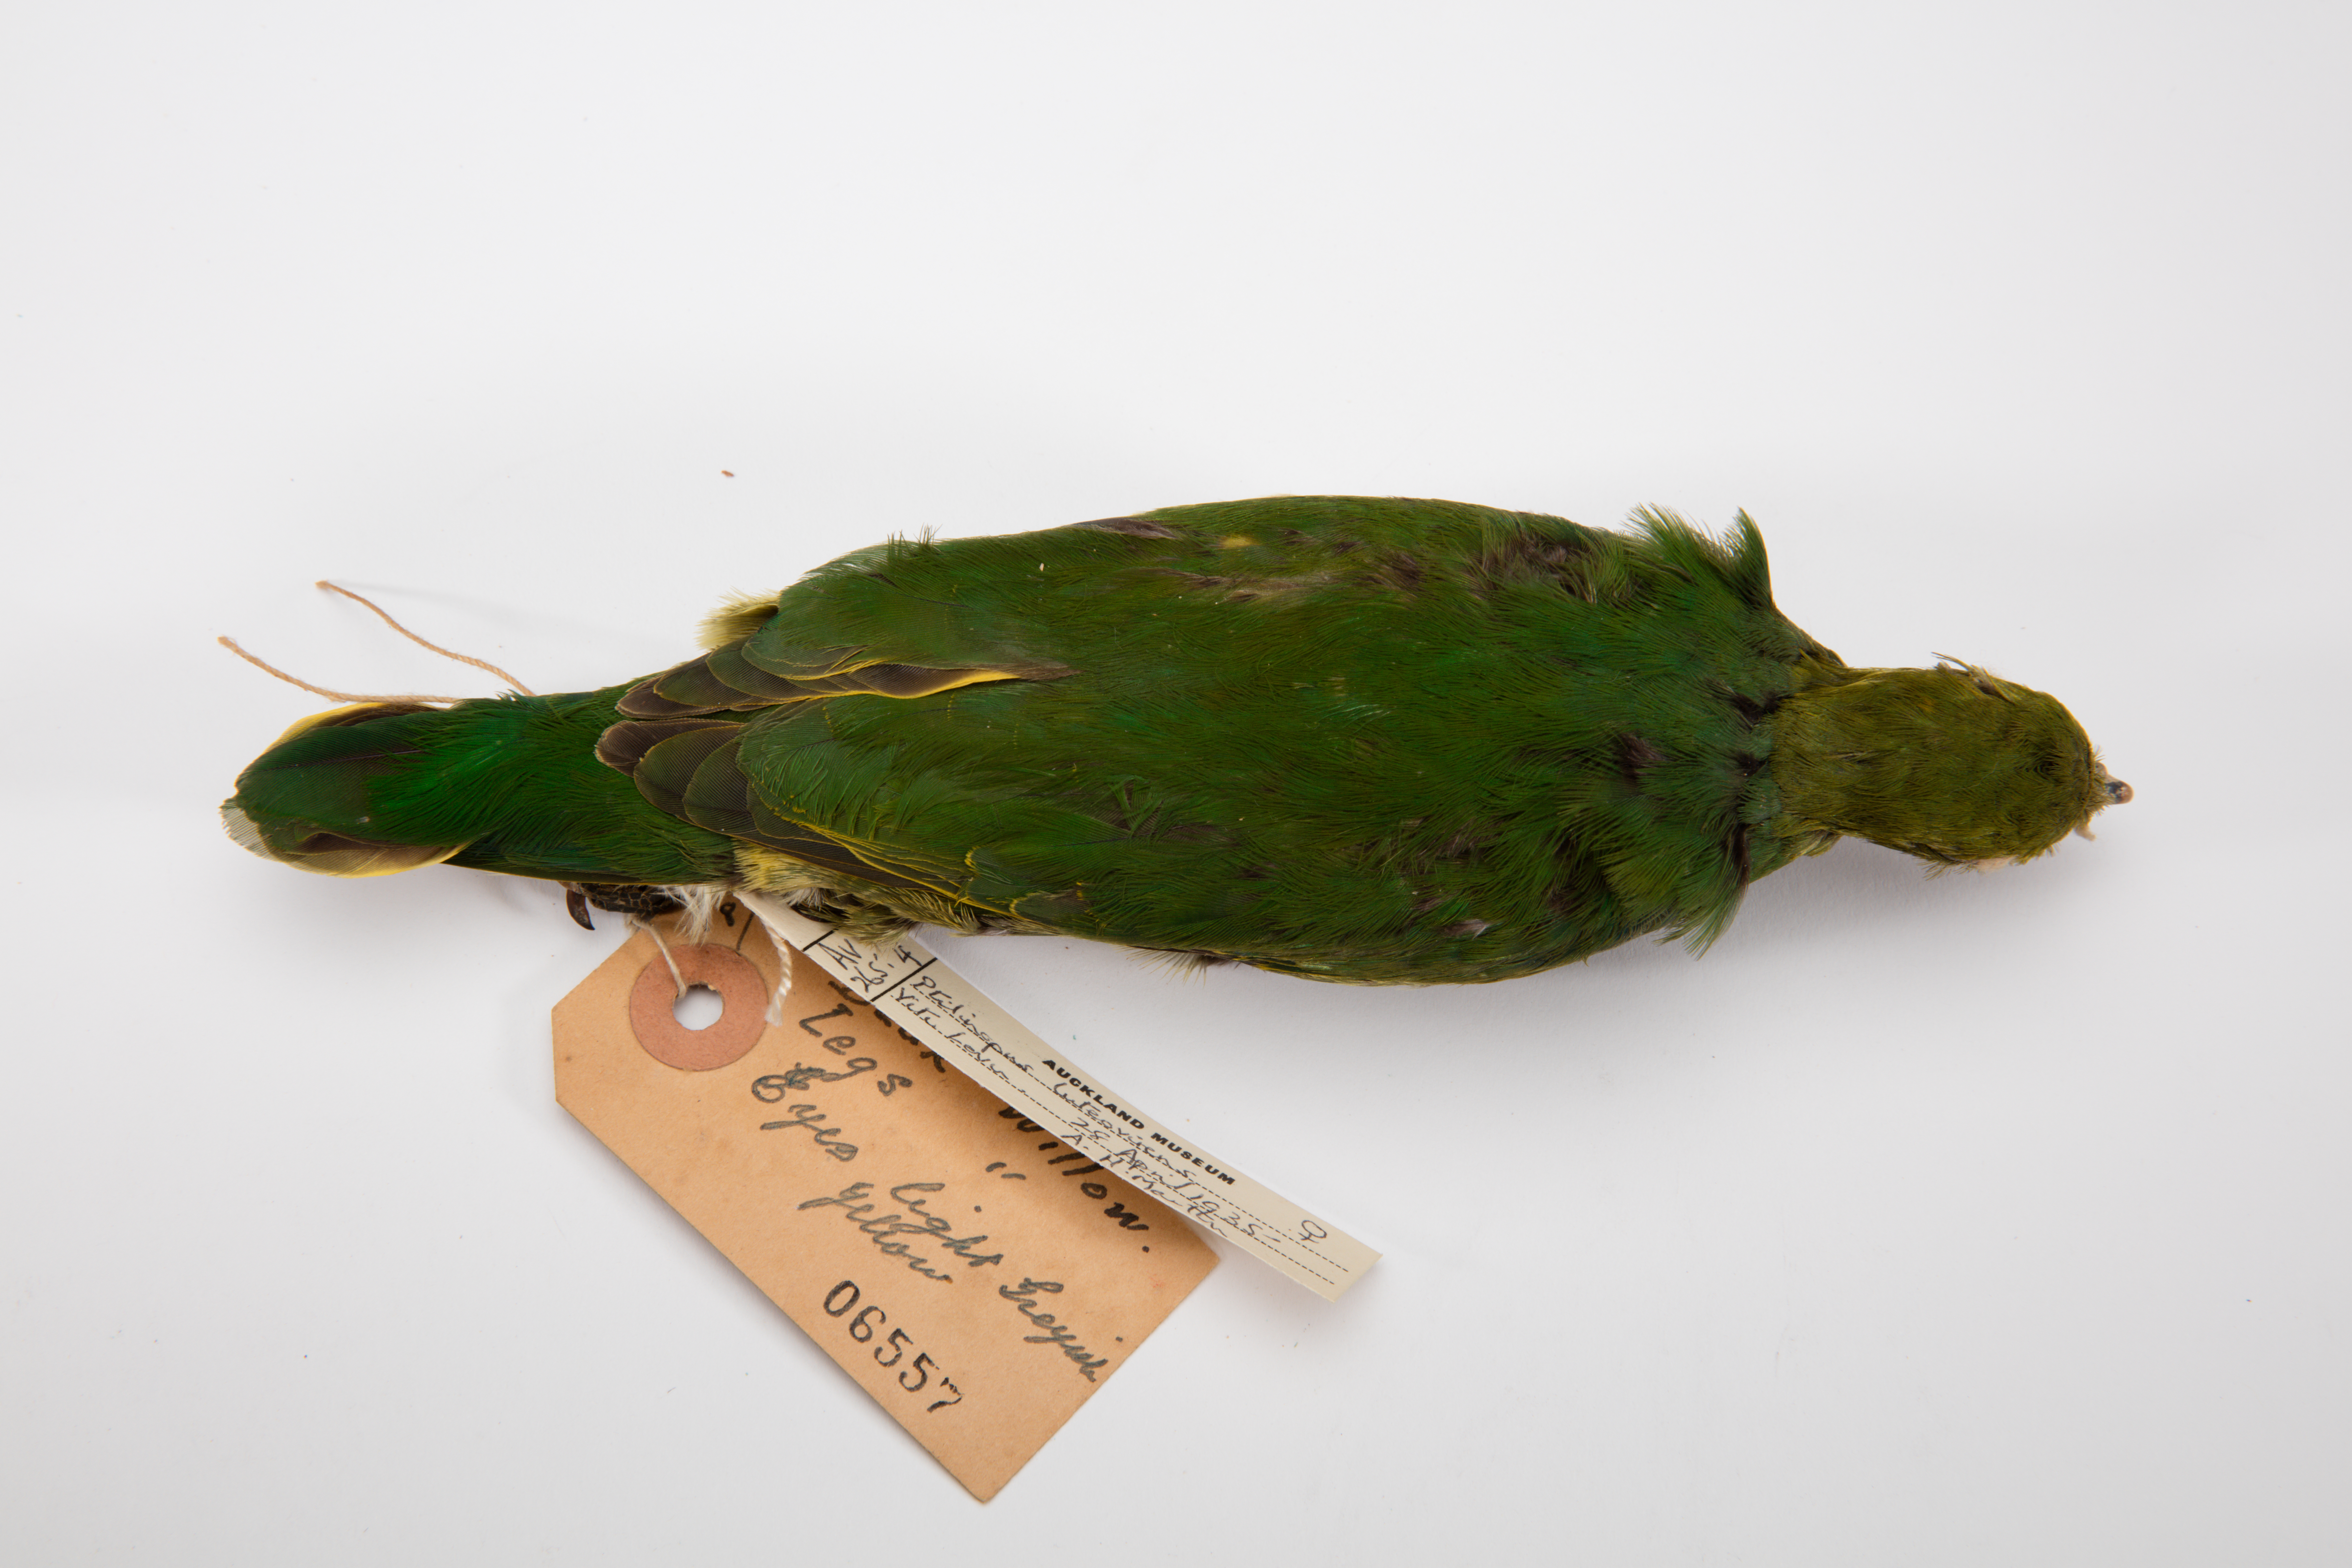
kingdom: Animalia
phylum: Chordata
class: Aves
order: Columbiformes
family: Columbidae
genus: Ptilinopus
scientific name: Ptilinopus luteovirens
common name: Golden fruit dove
